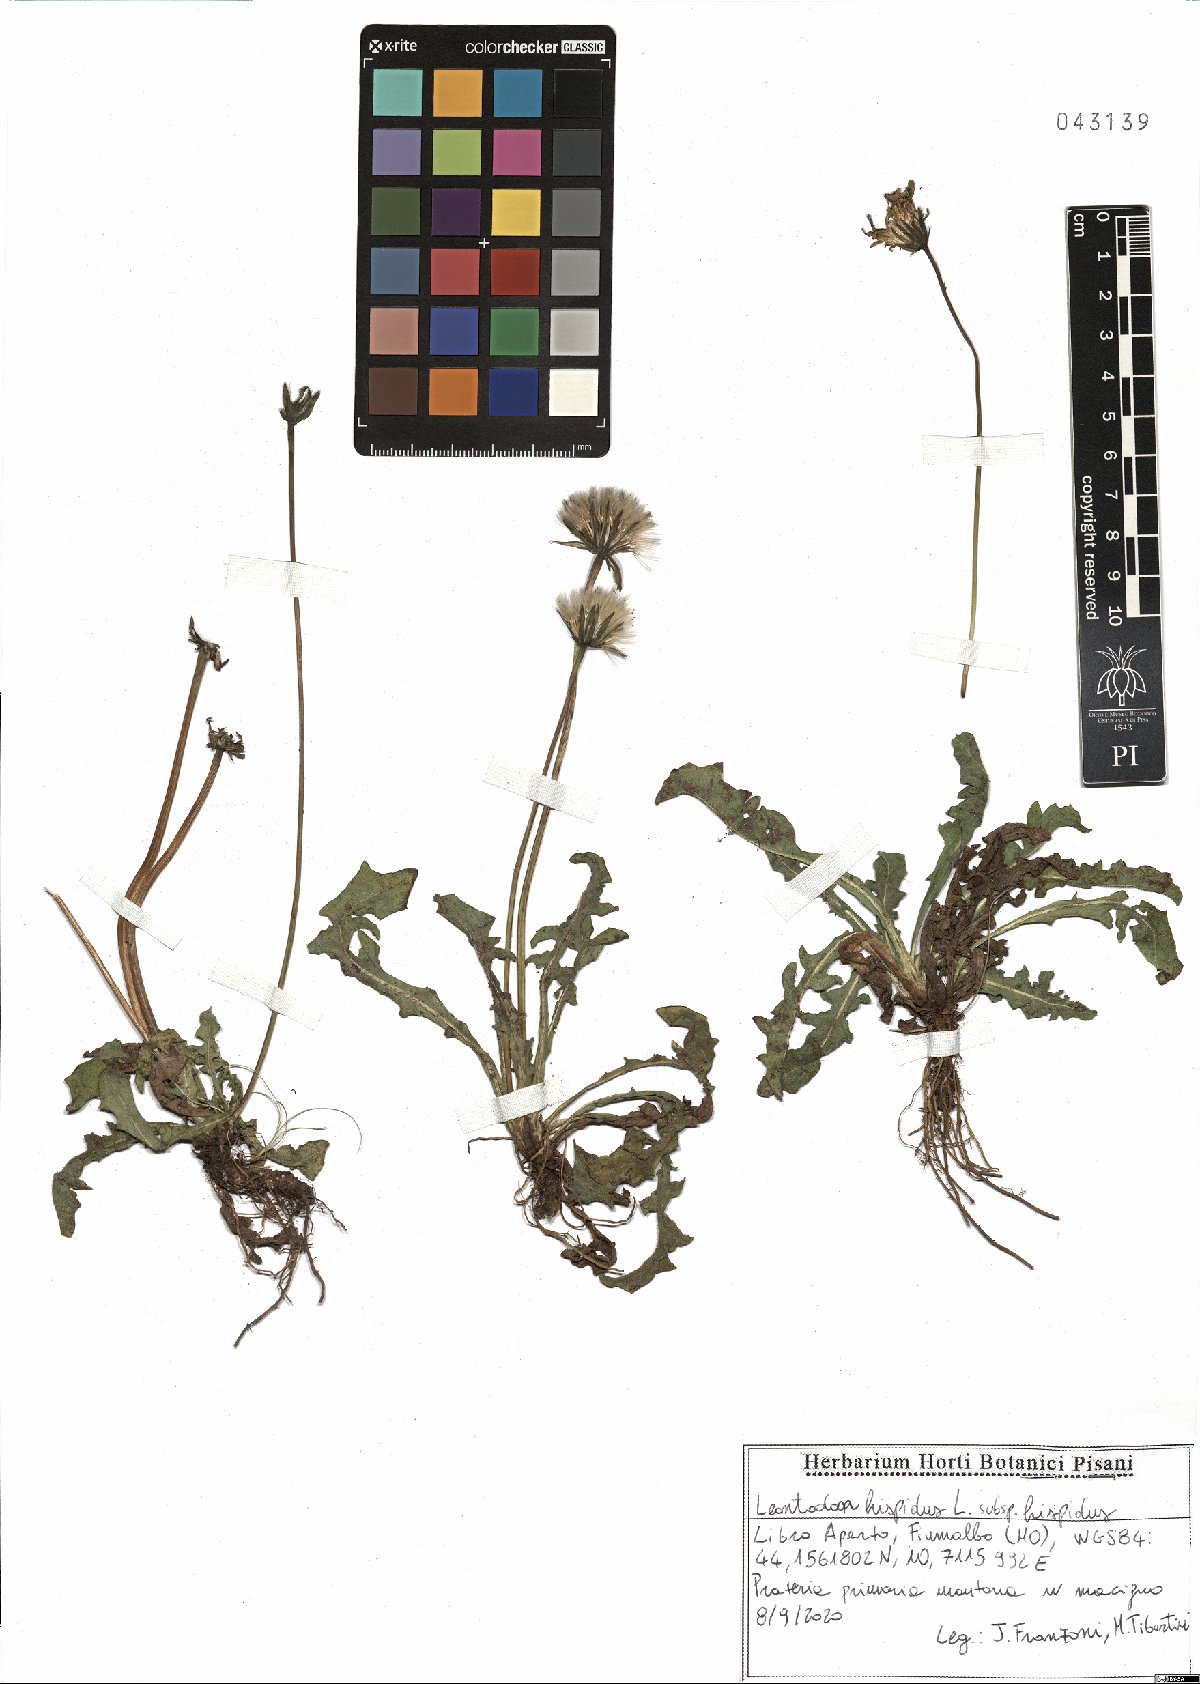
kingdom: Plantae
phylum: Tracheophyta
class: Magnoliopsida
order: Asterales
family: Asteraceae
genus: Leontodon
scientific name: Leontodon hispidus
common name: Rough hawkbit
